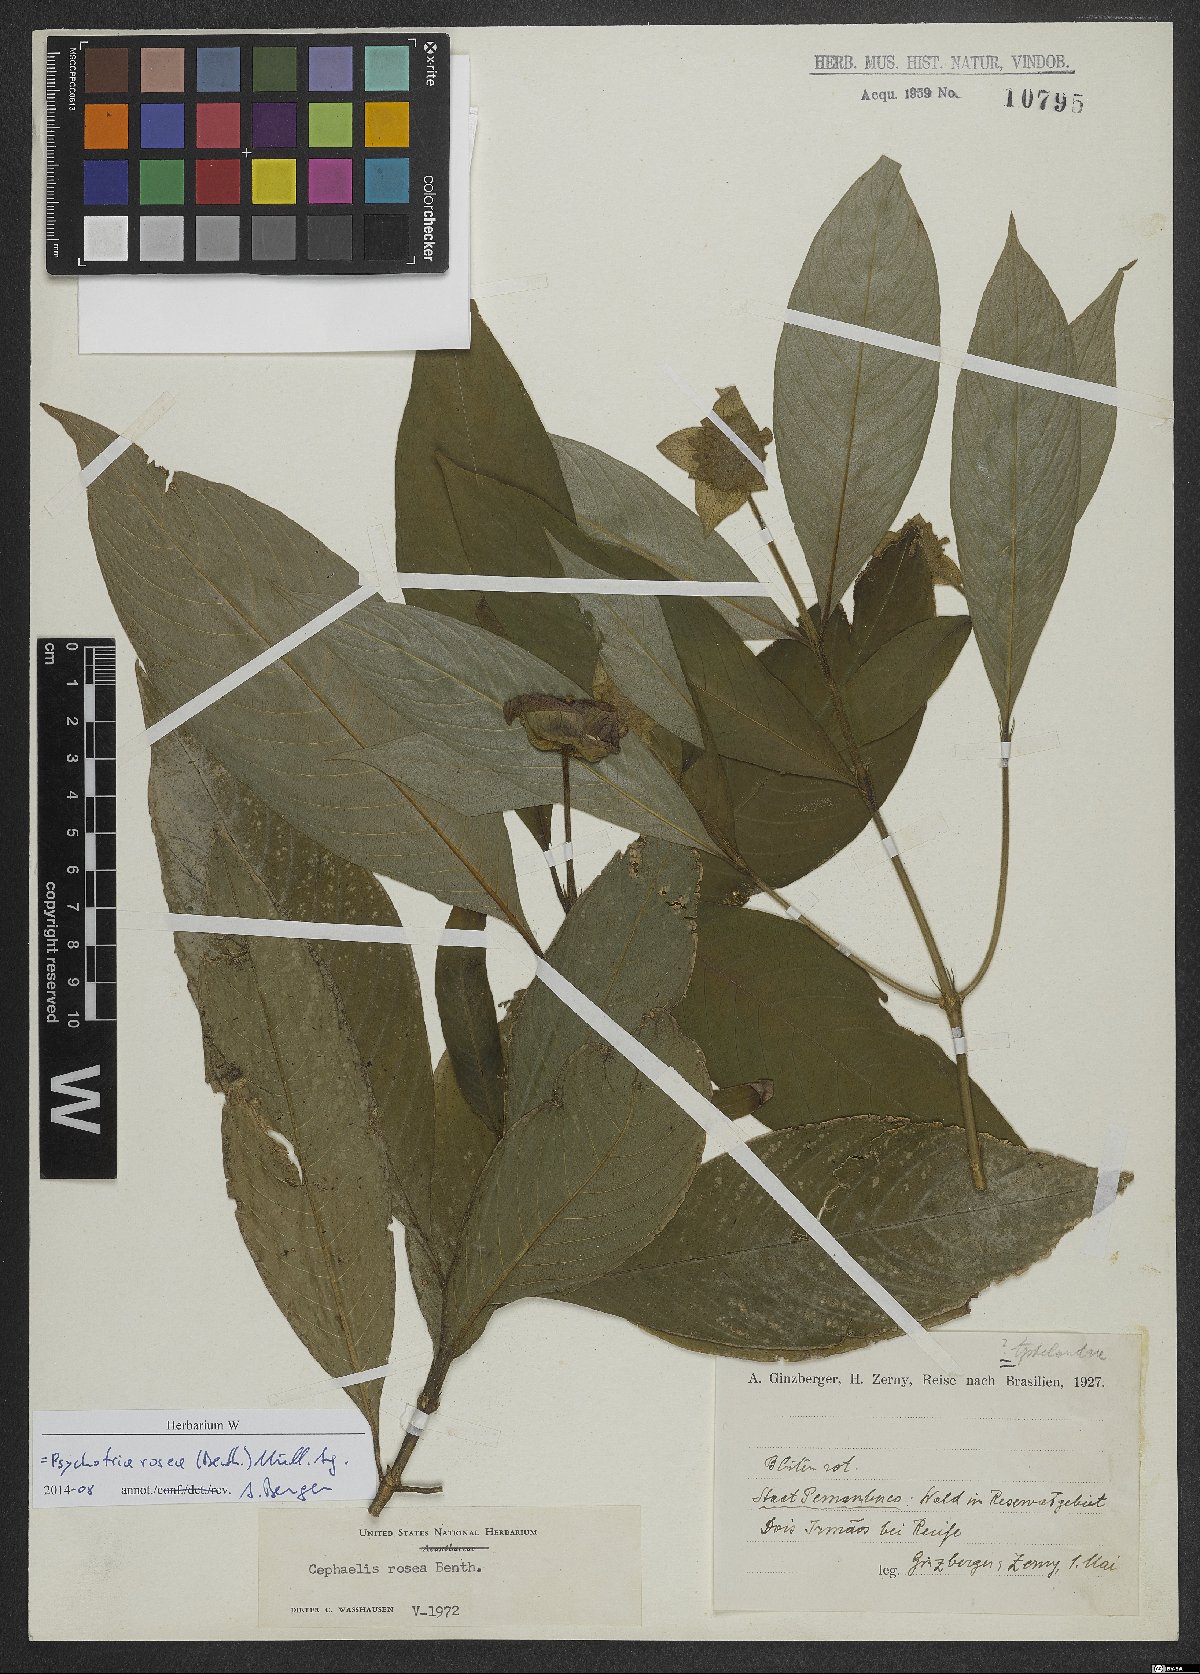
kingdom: Plantae
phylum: Tracheophyta
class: Magnoliopsida
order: Gentianales
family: Rubiaceae
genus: Palicourea
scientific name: Palicourea colorata
